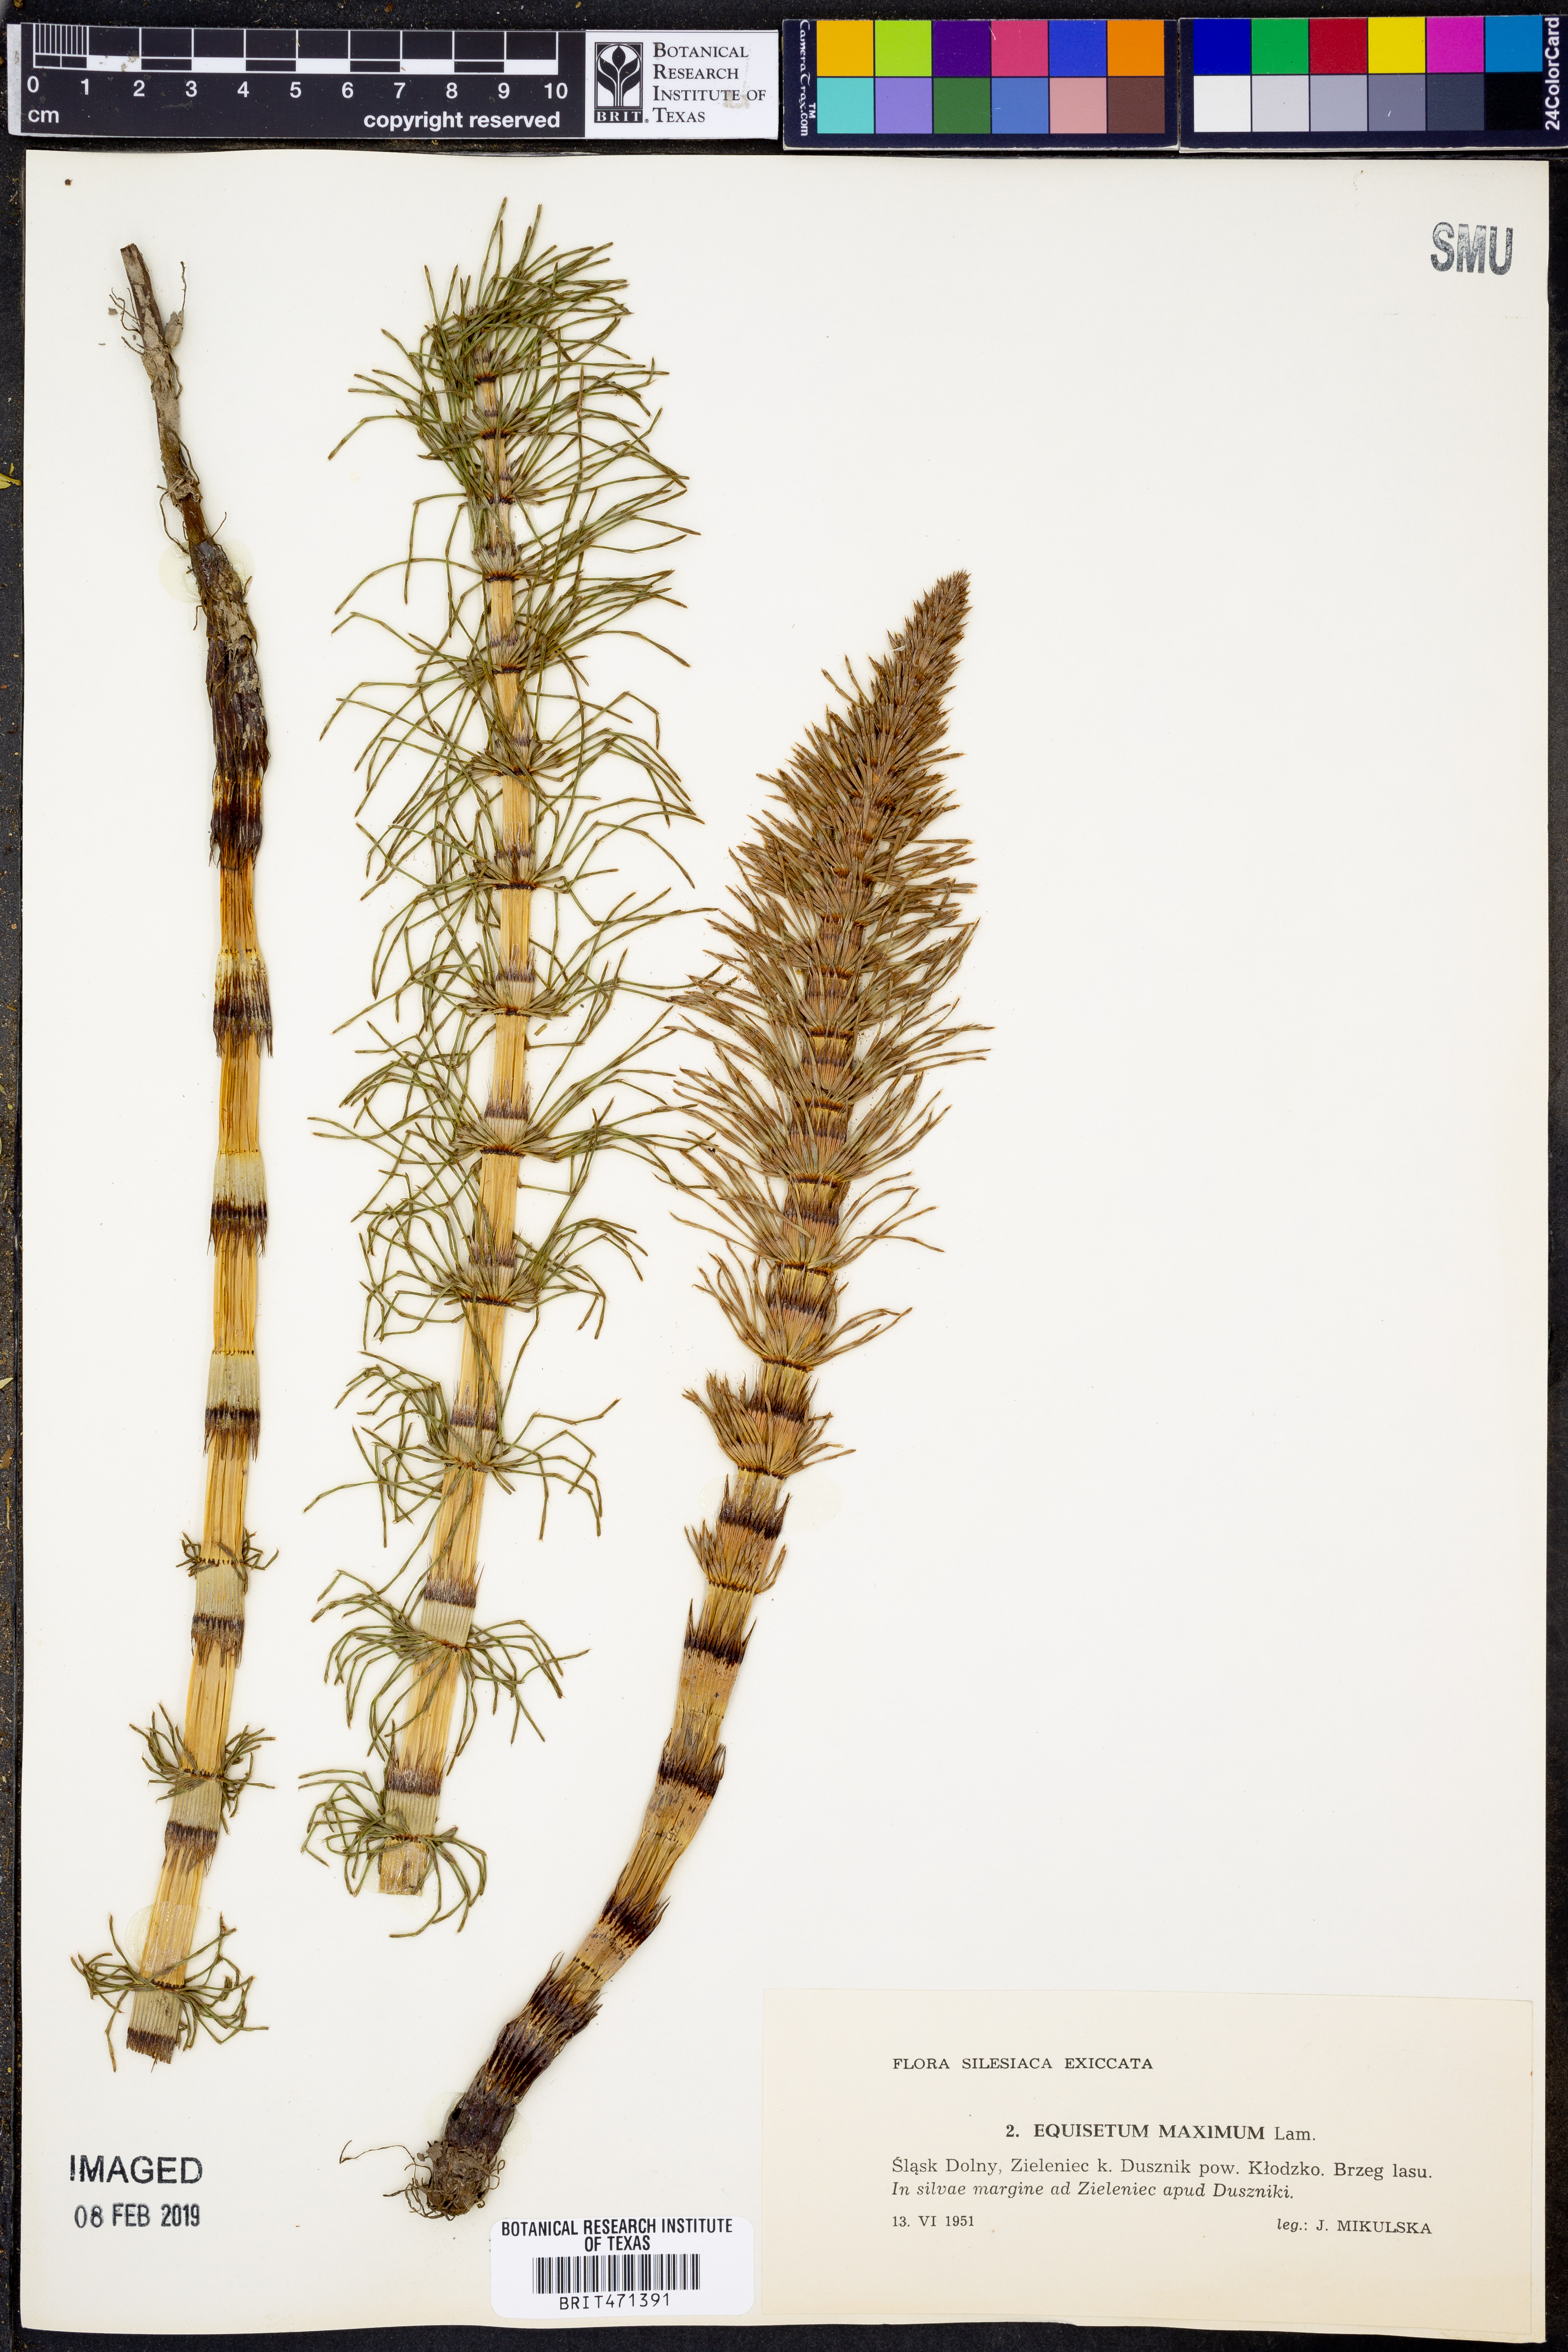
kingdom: Plantae
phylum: Tracheophyta
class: Polypodiopsida
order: Equisetales
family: Equisetaceae
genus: Equisetum
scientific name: Equisetum
